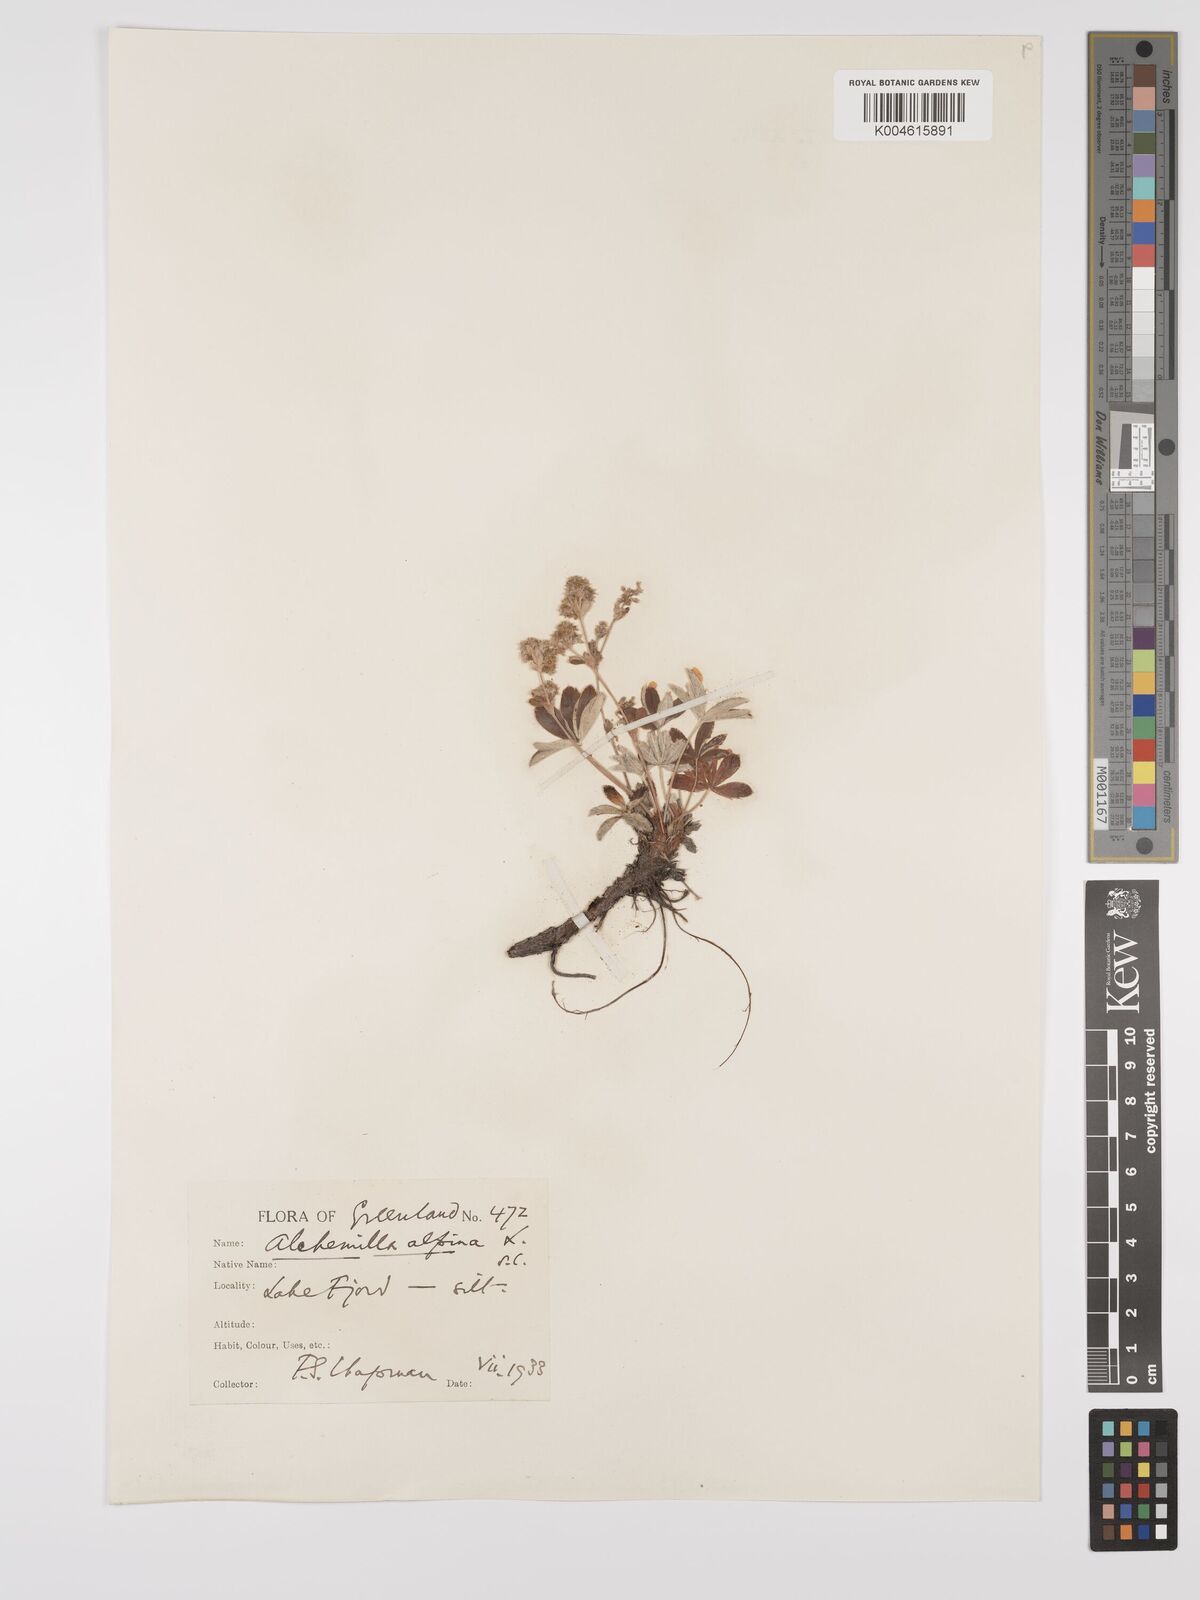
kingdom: Plantae
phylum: Tracheophyta
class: Magnoliopsida
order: Rosales
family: Rosaceae
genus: Alchemilla
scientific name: Alchemilla alpina
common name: Alpine lady's-mantle
